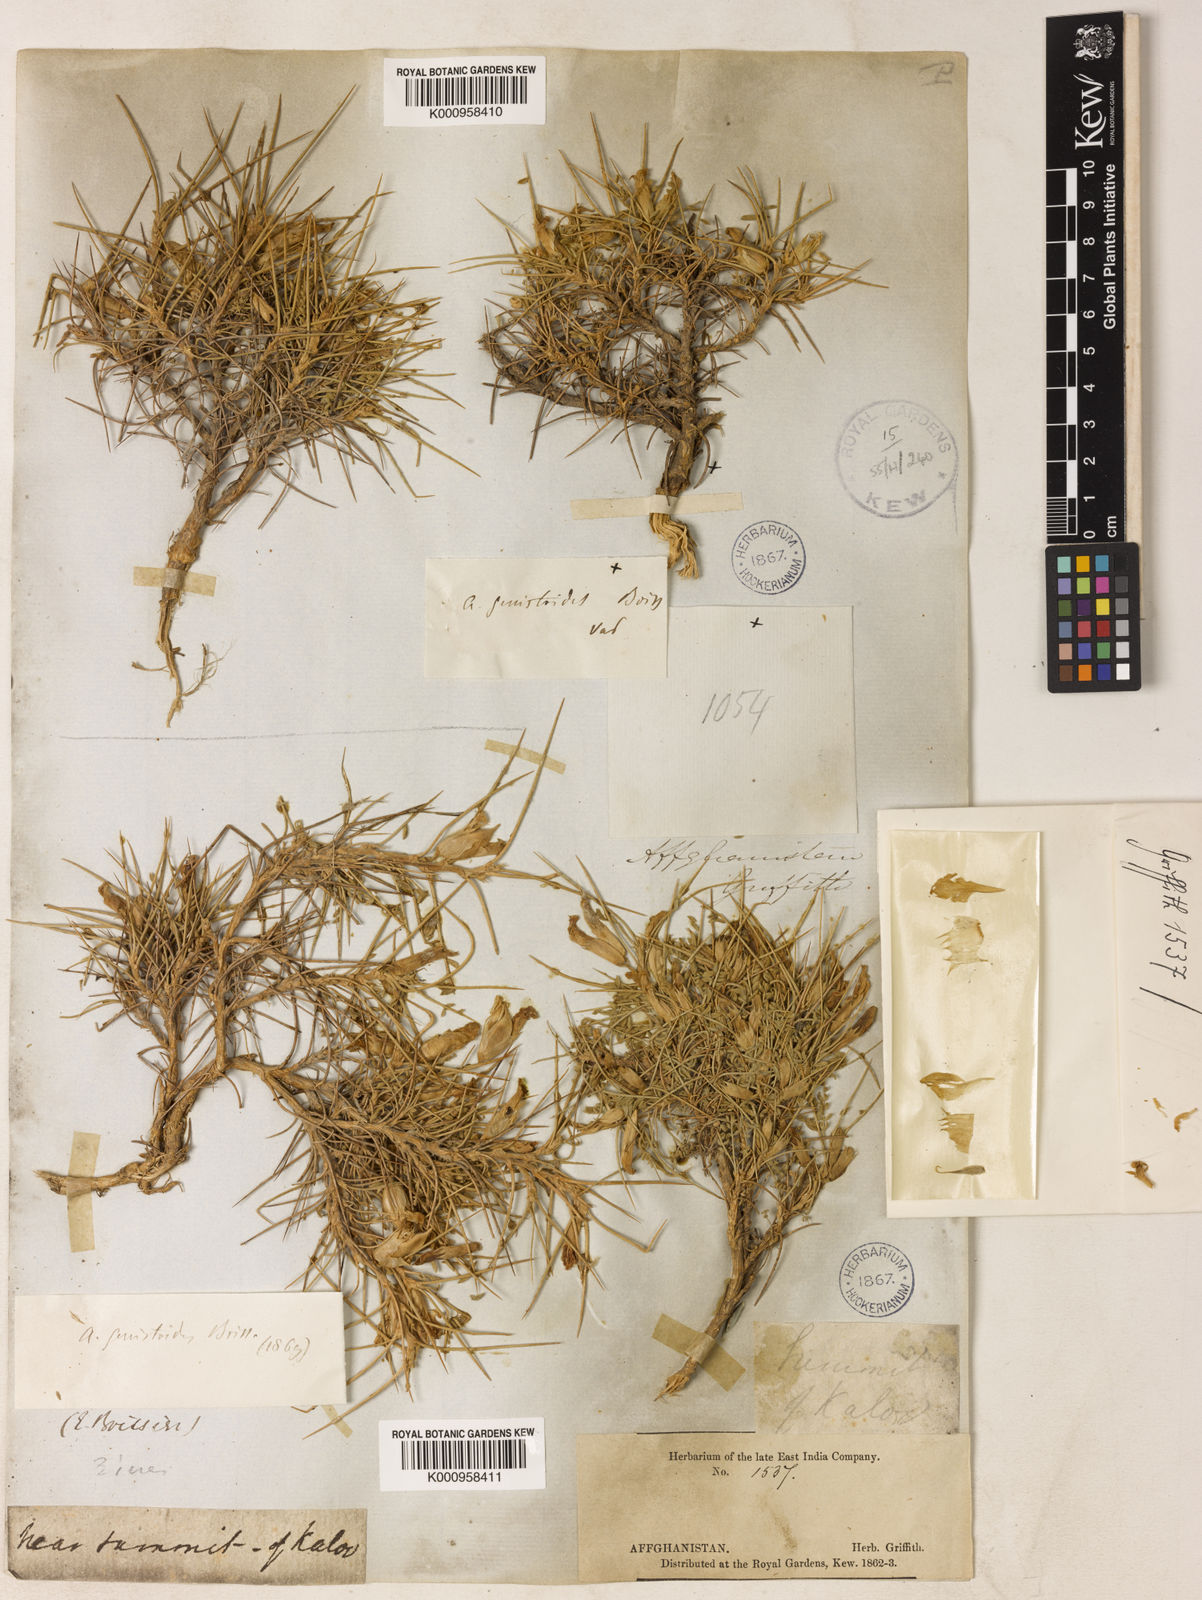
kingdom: Plantae
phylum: Tracheophyta
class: Magnoliopsida
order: Fabales
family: Fabaceae
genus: Astragalus
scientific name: Astragalus lasiosemius
